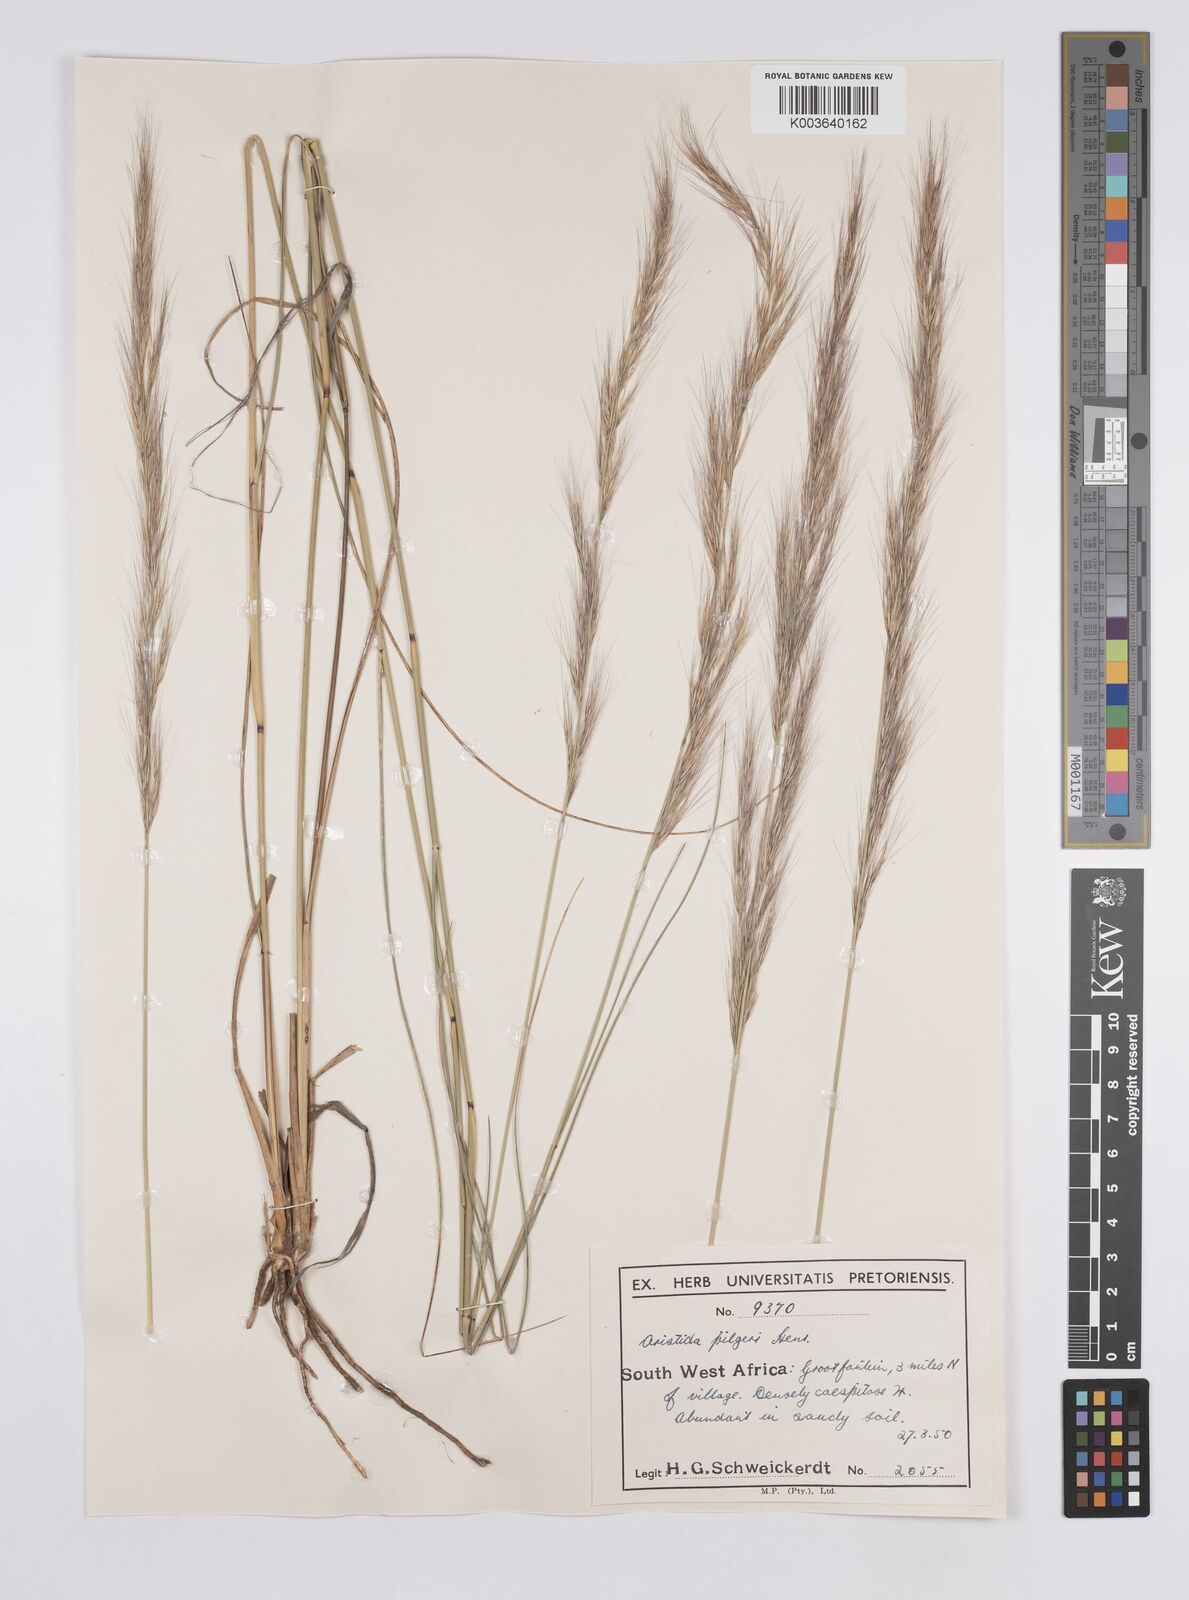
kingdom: Plantae
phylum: Tracheophyta
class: Liliopsida
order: Poales
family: Poaceae
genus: Aristida
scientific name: Aristida pilgeri
